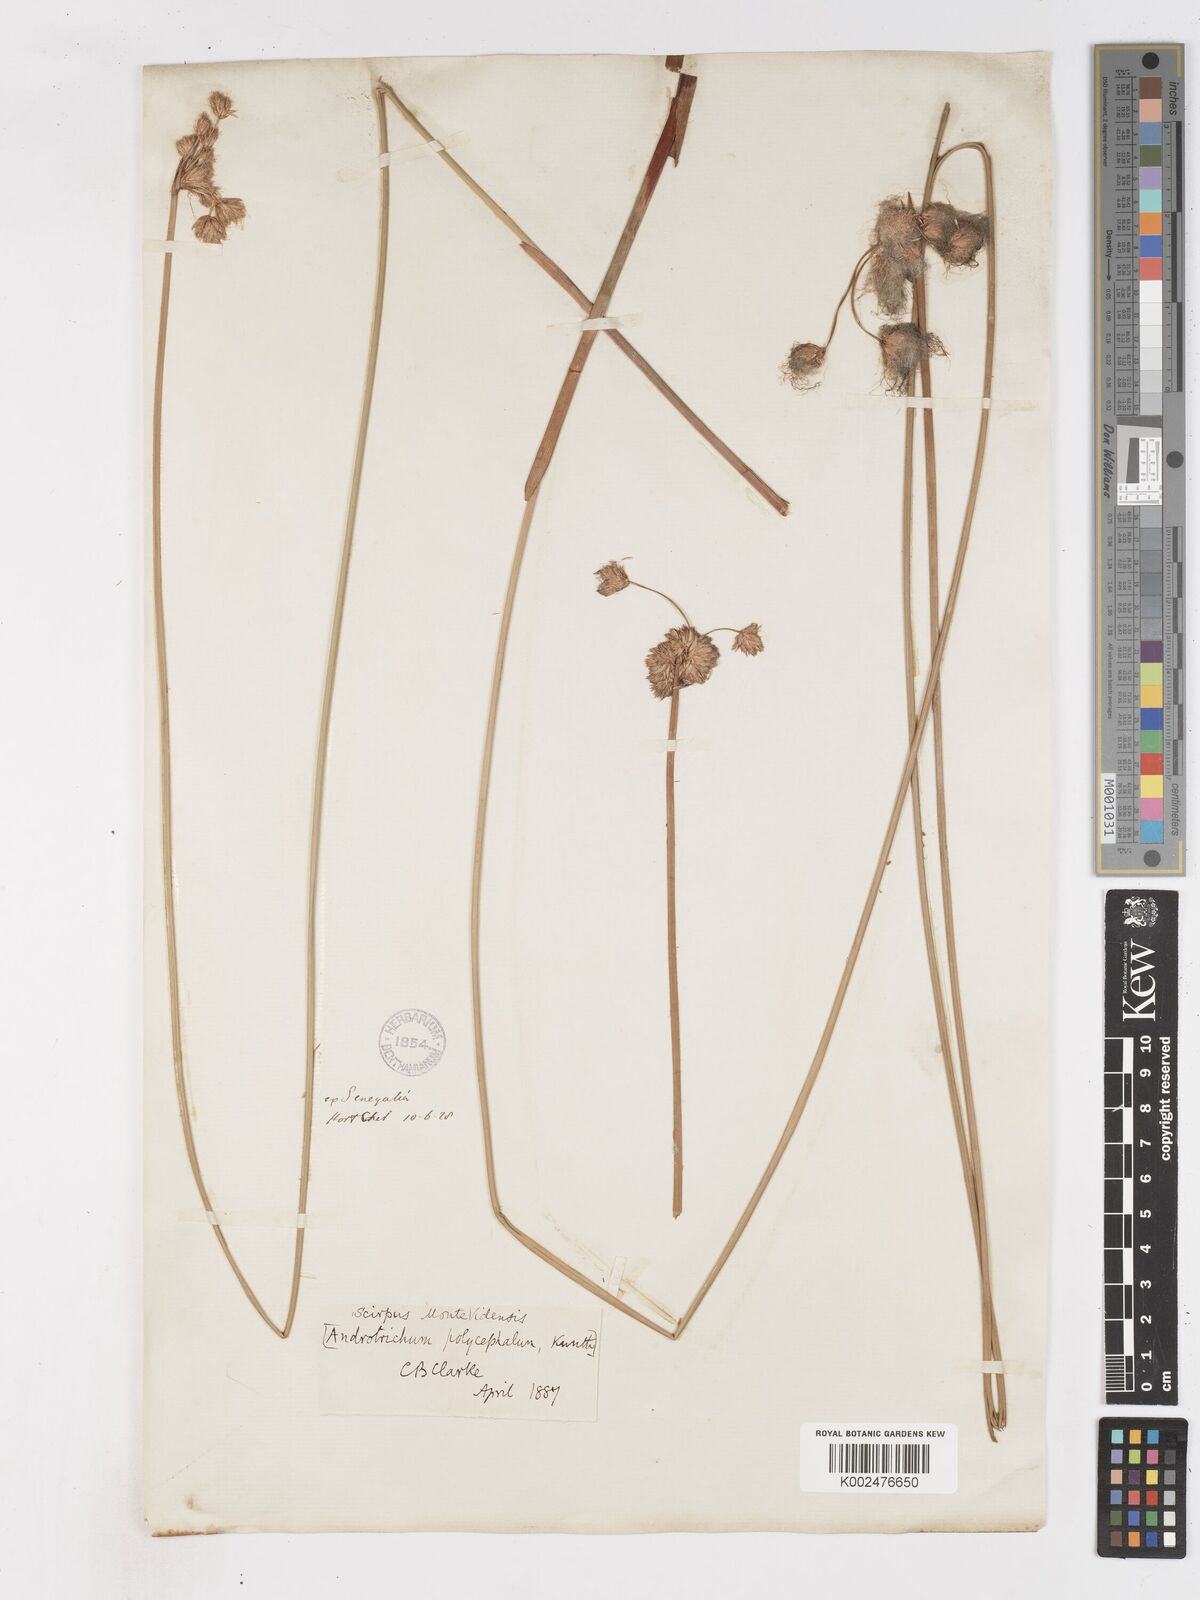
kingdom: Plantae
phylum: Tracheophyta
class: Liliopsida
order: Poales
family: Cyperaceae
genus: Cyperus
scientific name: Cyperus
